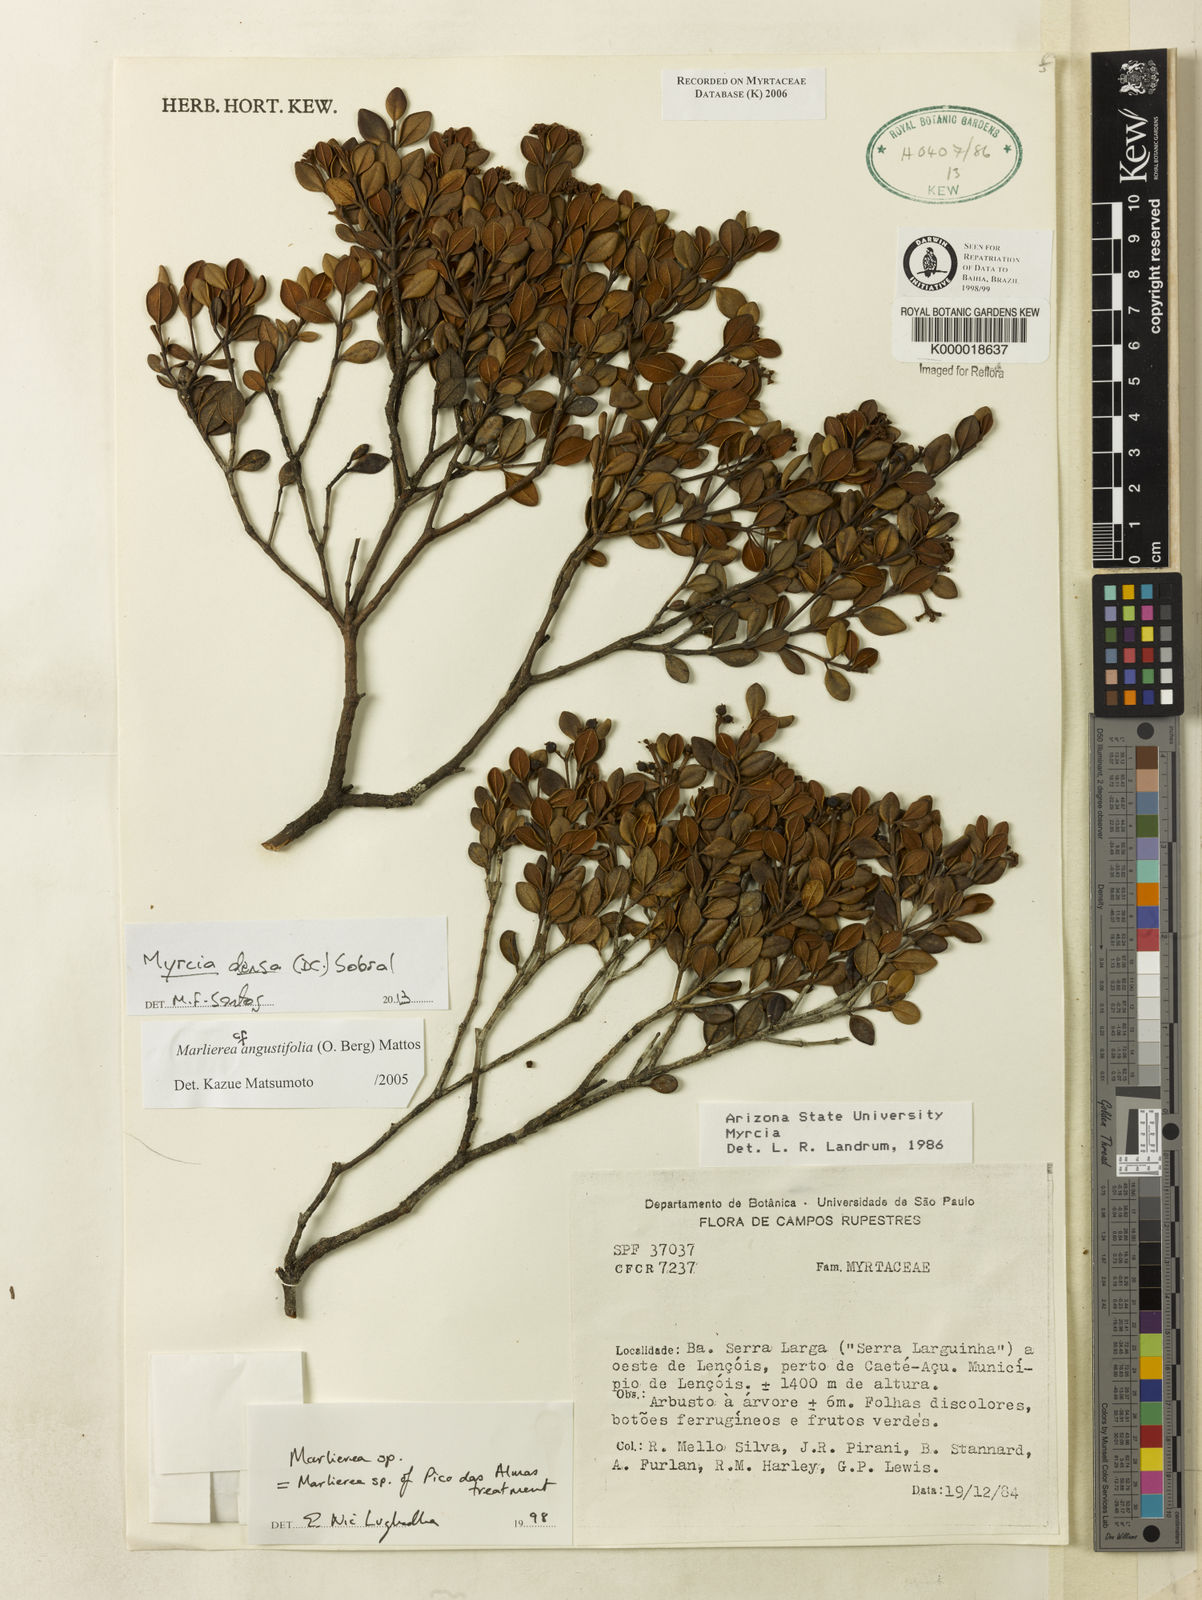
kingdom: Plantae
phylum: Tracheophyta
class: Magnoliopsida
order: Myrtales
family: Myrtaceae
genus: Marlierea
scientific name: Marlierea
